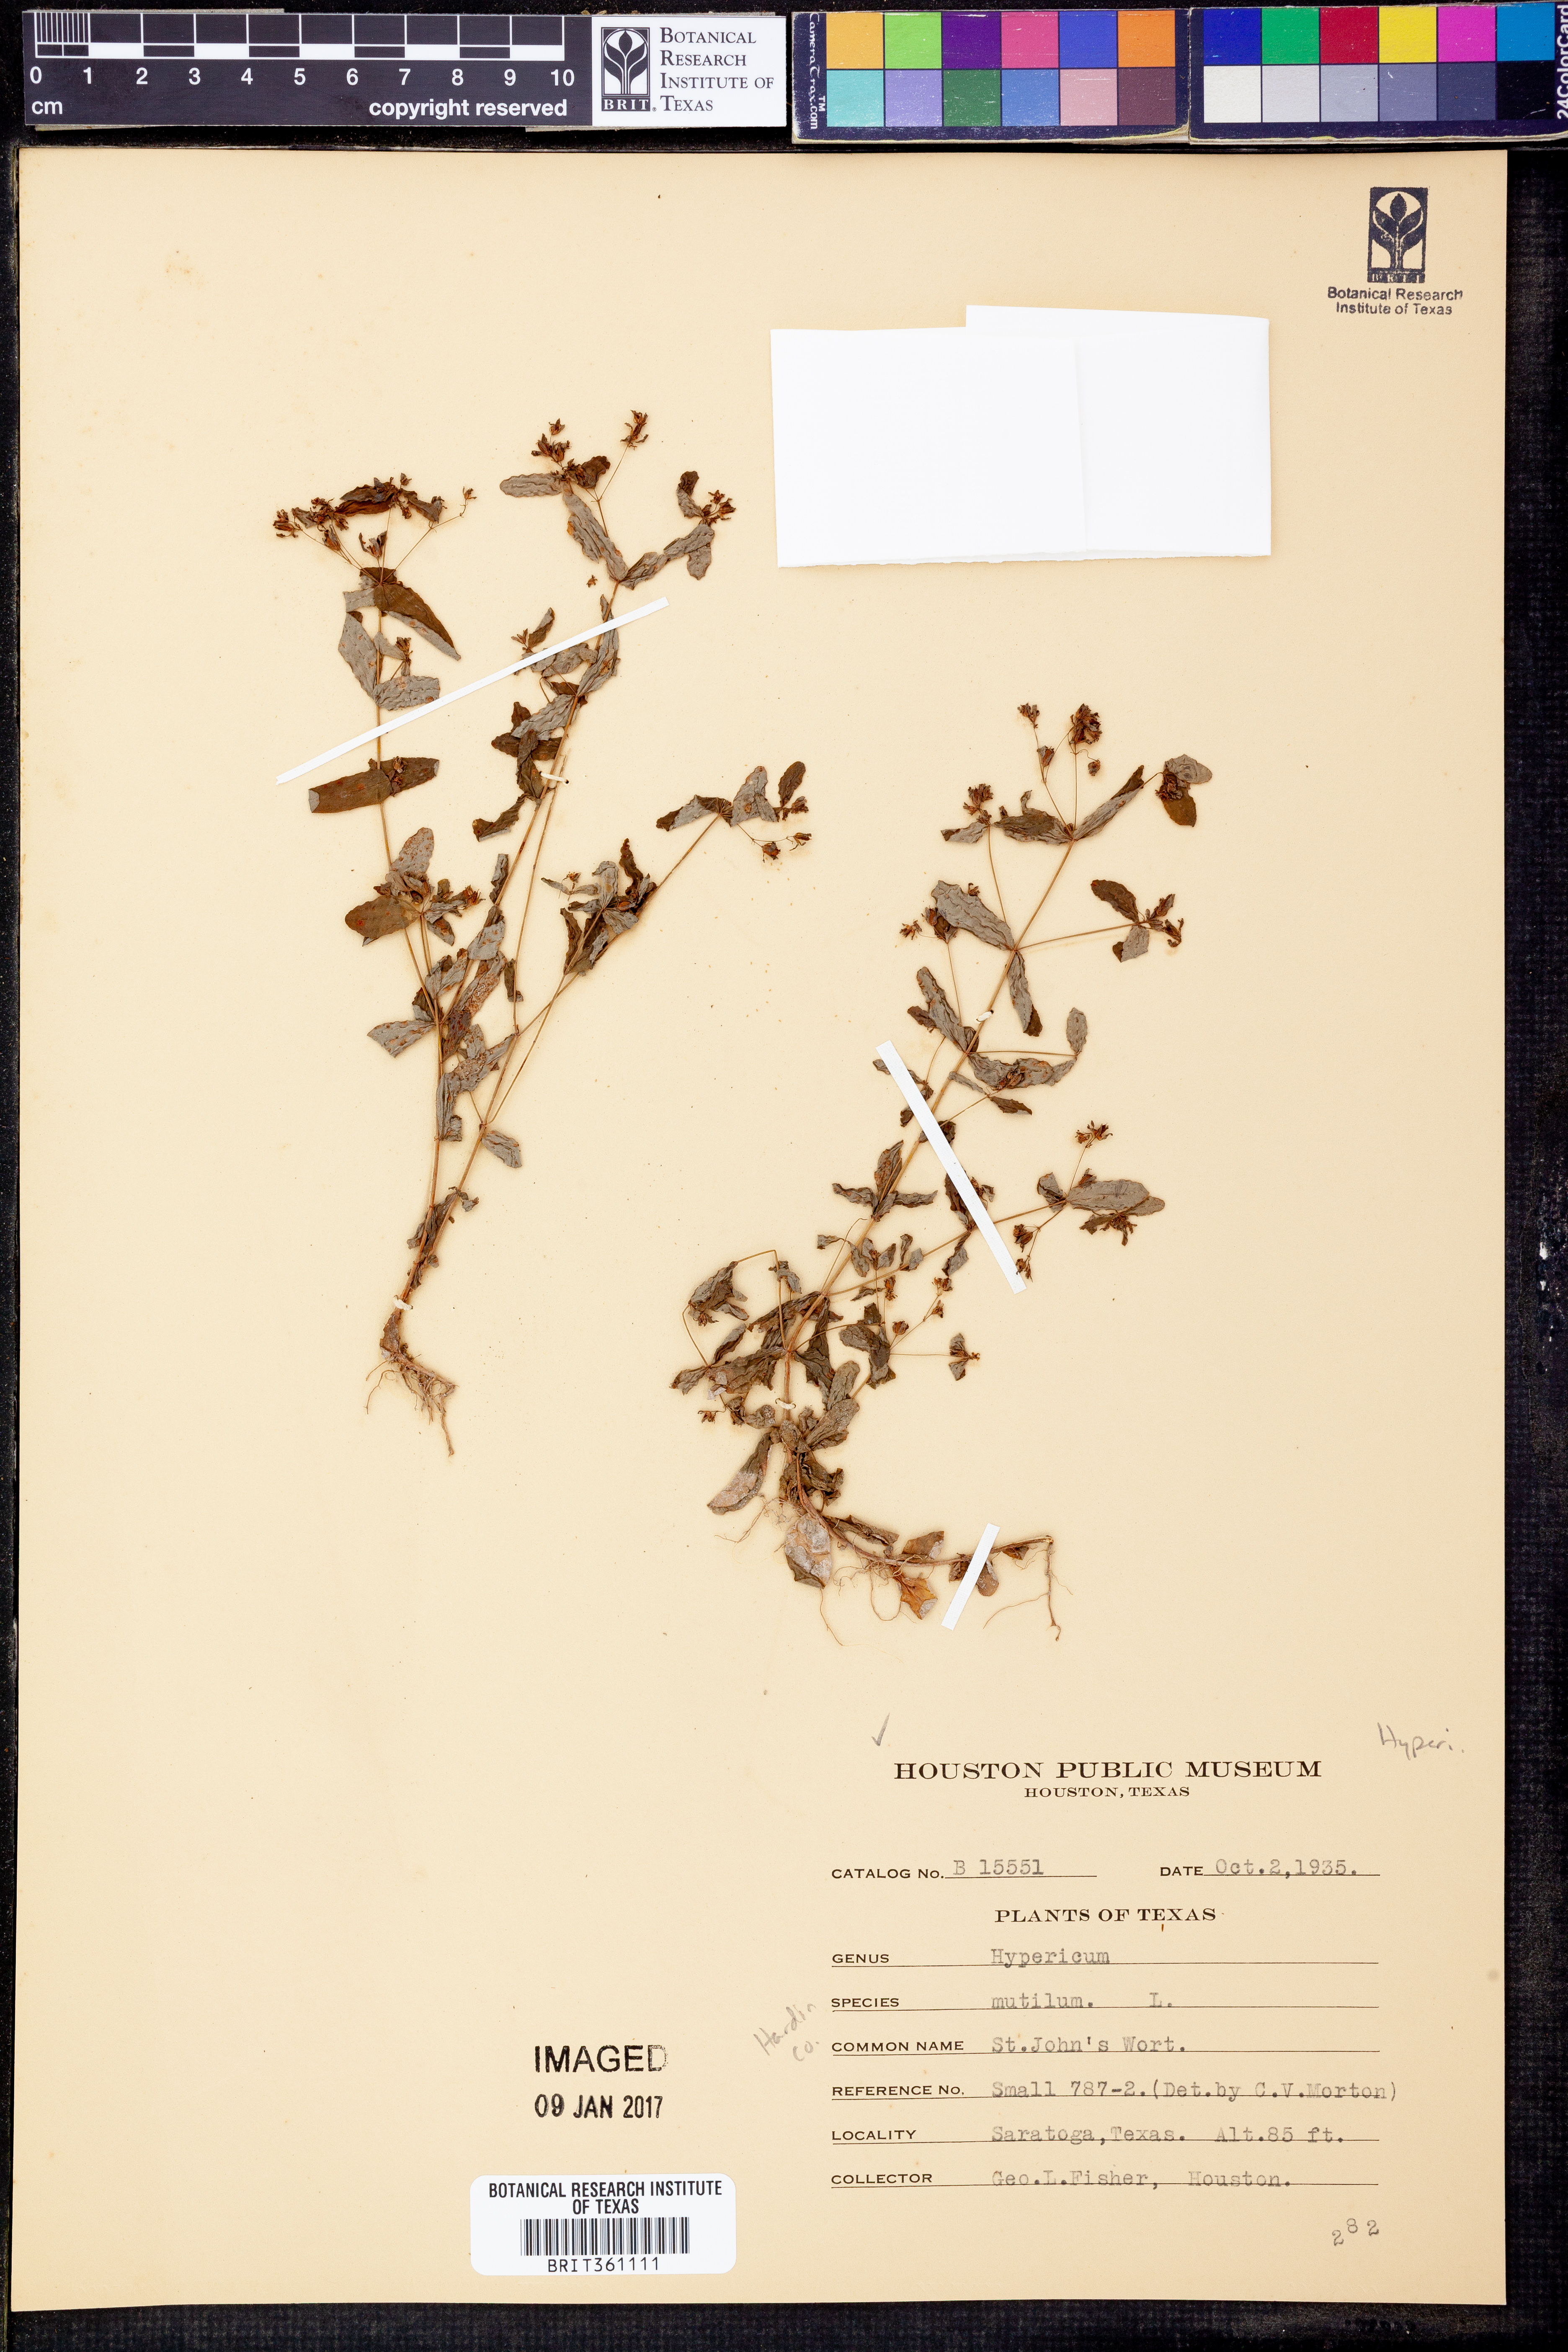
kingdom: Plantae
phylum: Tracheophyta
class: Magnoliopsida
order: Malpighiales
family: Hypericaceae
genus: Hypericum
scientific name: Hypericum mutilum
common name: Dwarf st. john's-wort
